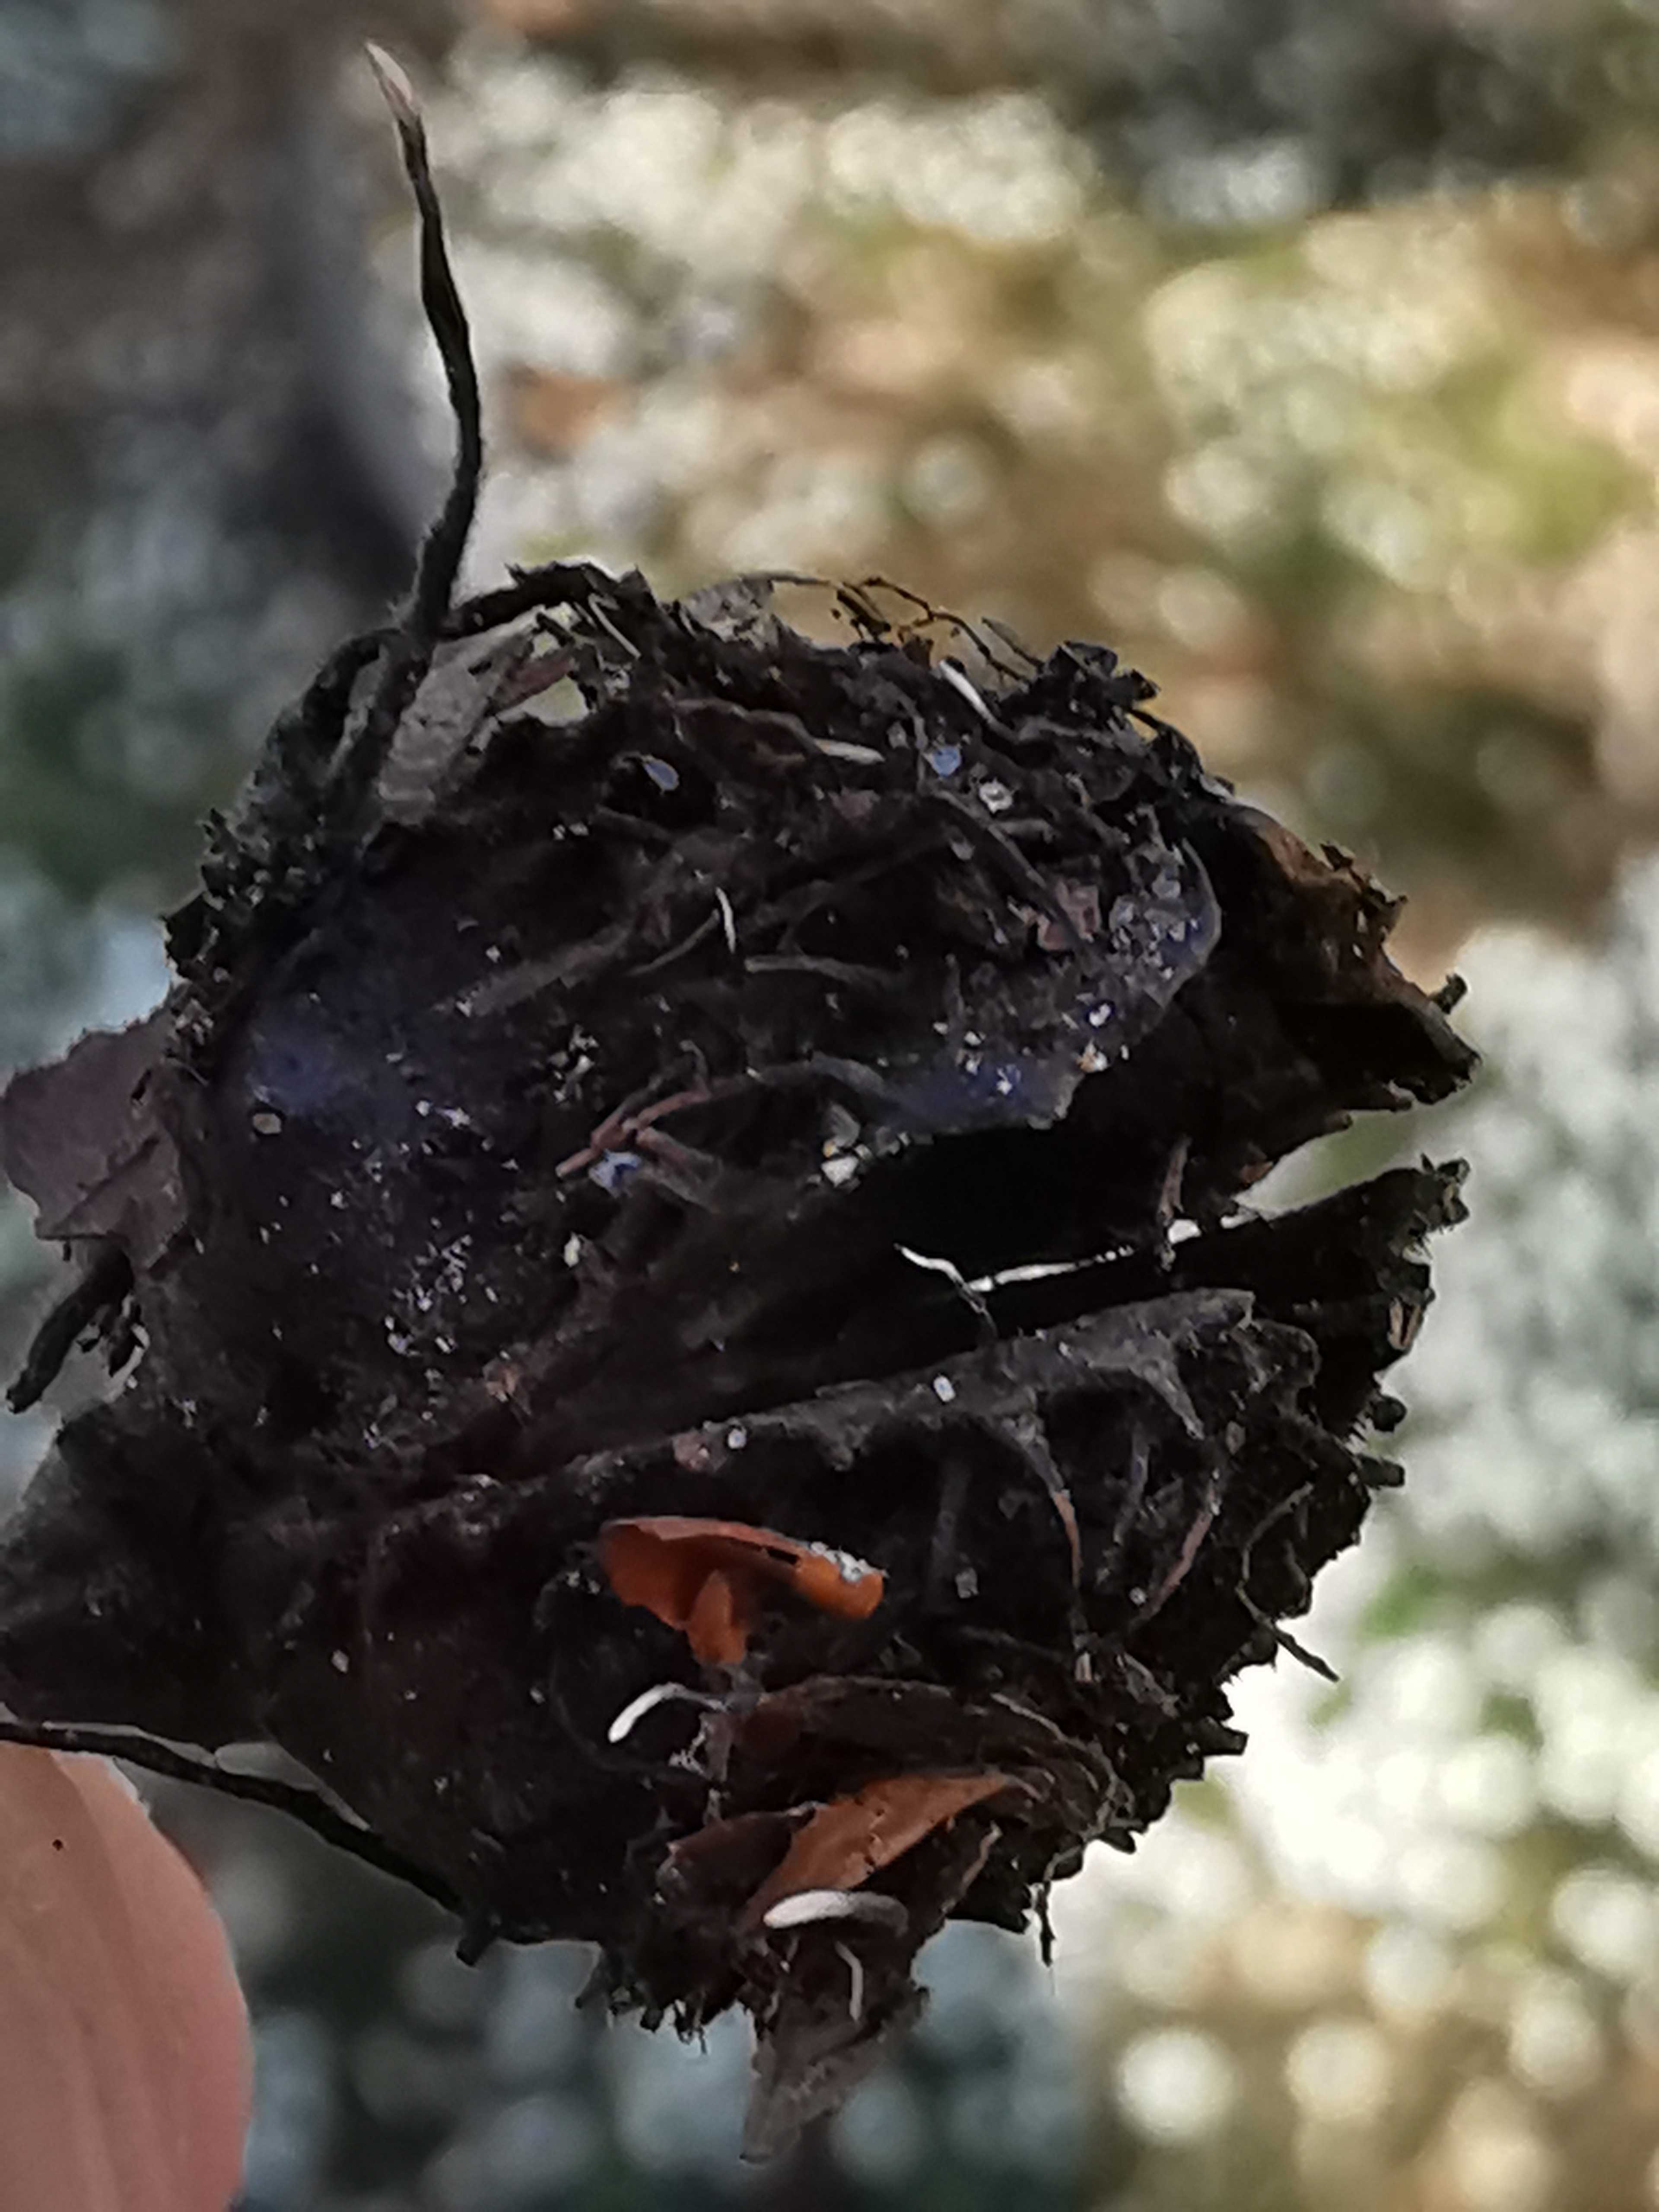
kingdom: Fungi
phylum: Ascomycota
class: Sordariomycetes
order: Xylariales
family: Xylariaceae
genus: Xylaria
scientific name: Xylaria carpophila
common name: bogskål-stødsvamp
